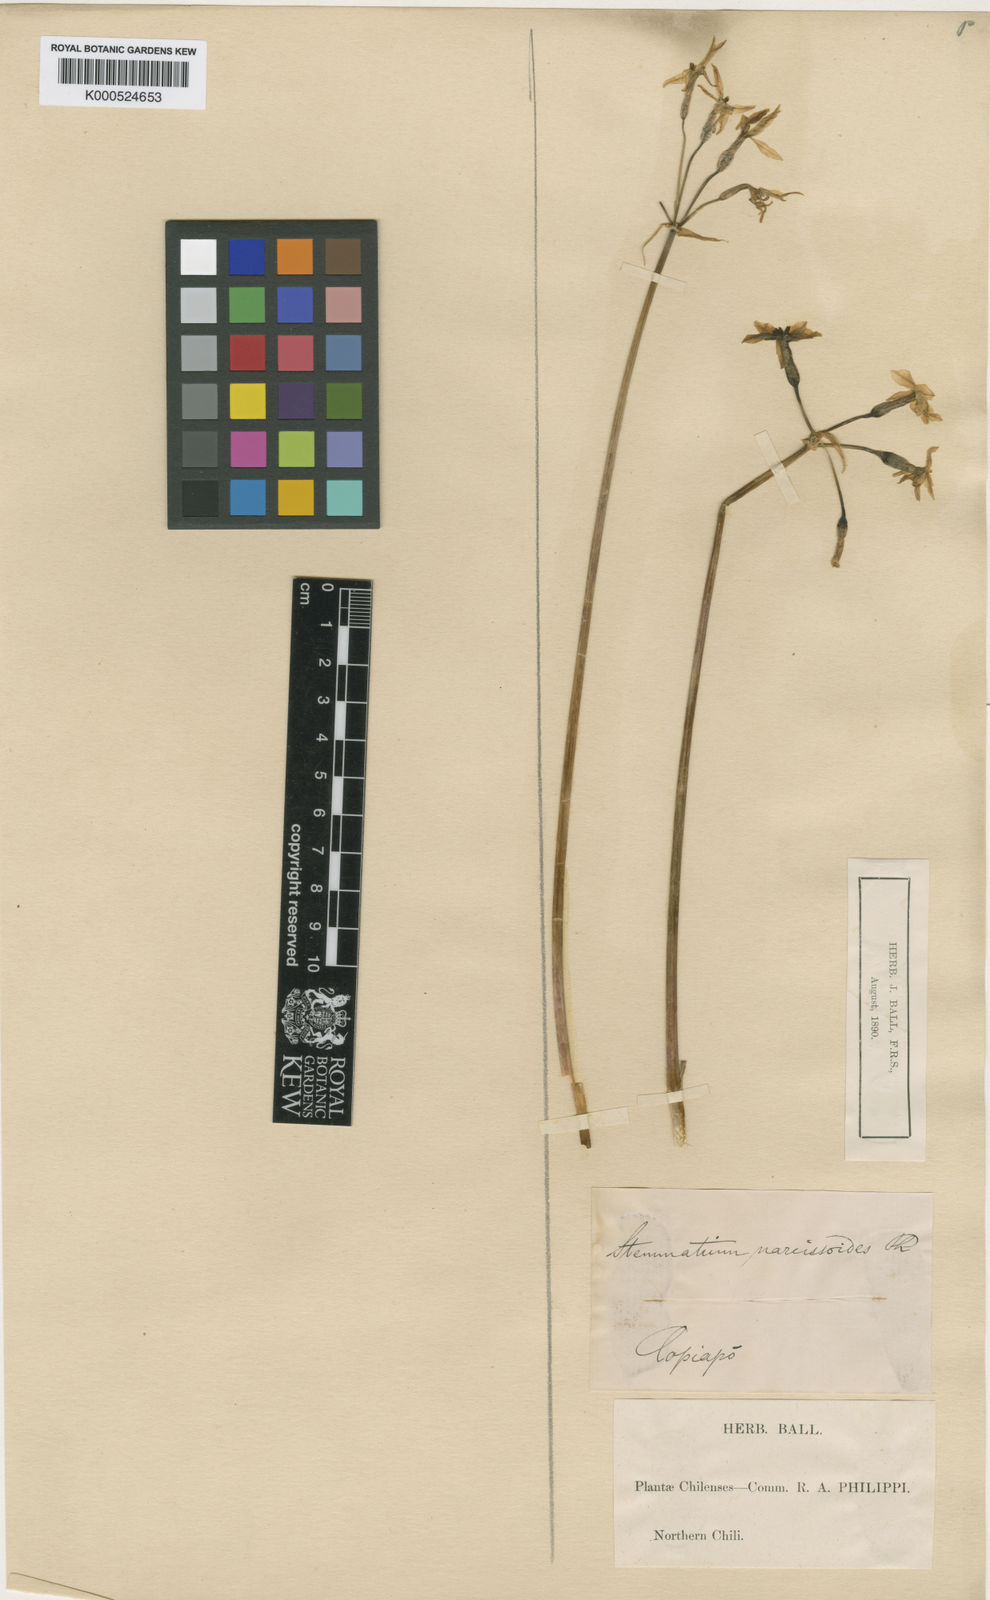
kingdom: Plantae
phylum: Tracheophyta
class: Liliopsida
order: Asparagales
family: Amaryllidaceae
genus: Leucocoryne
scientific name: Leucocoryne narcissoides
